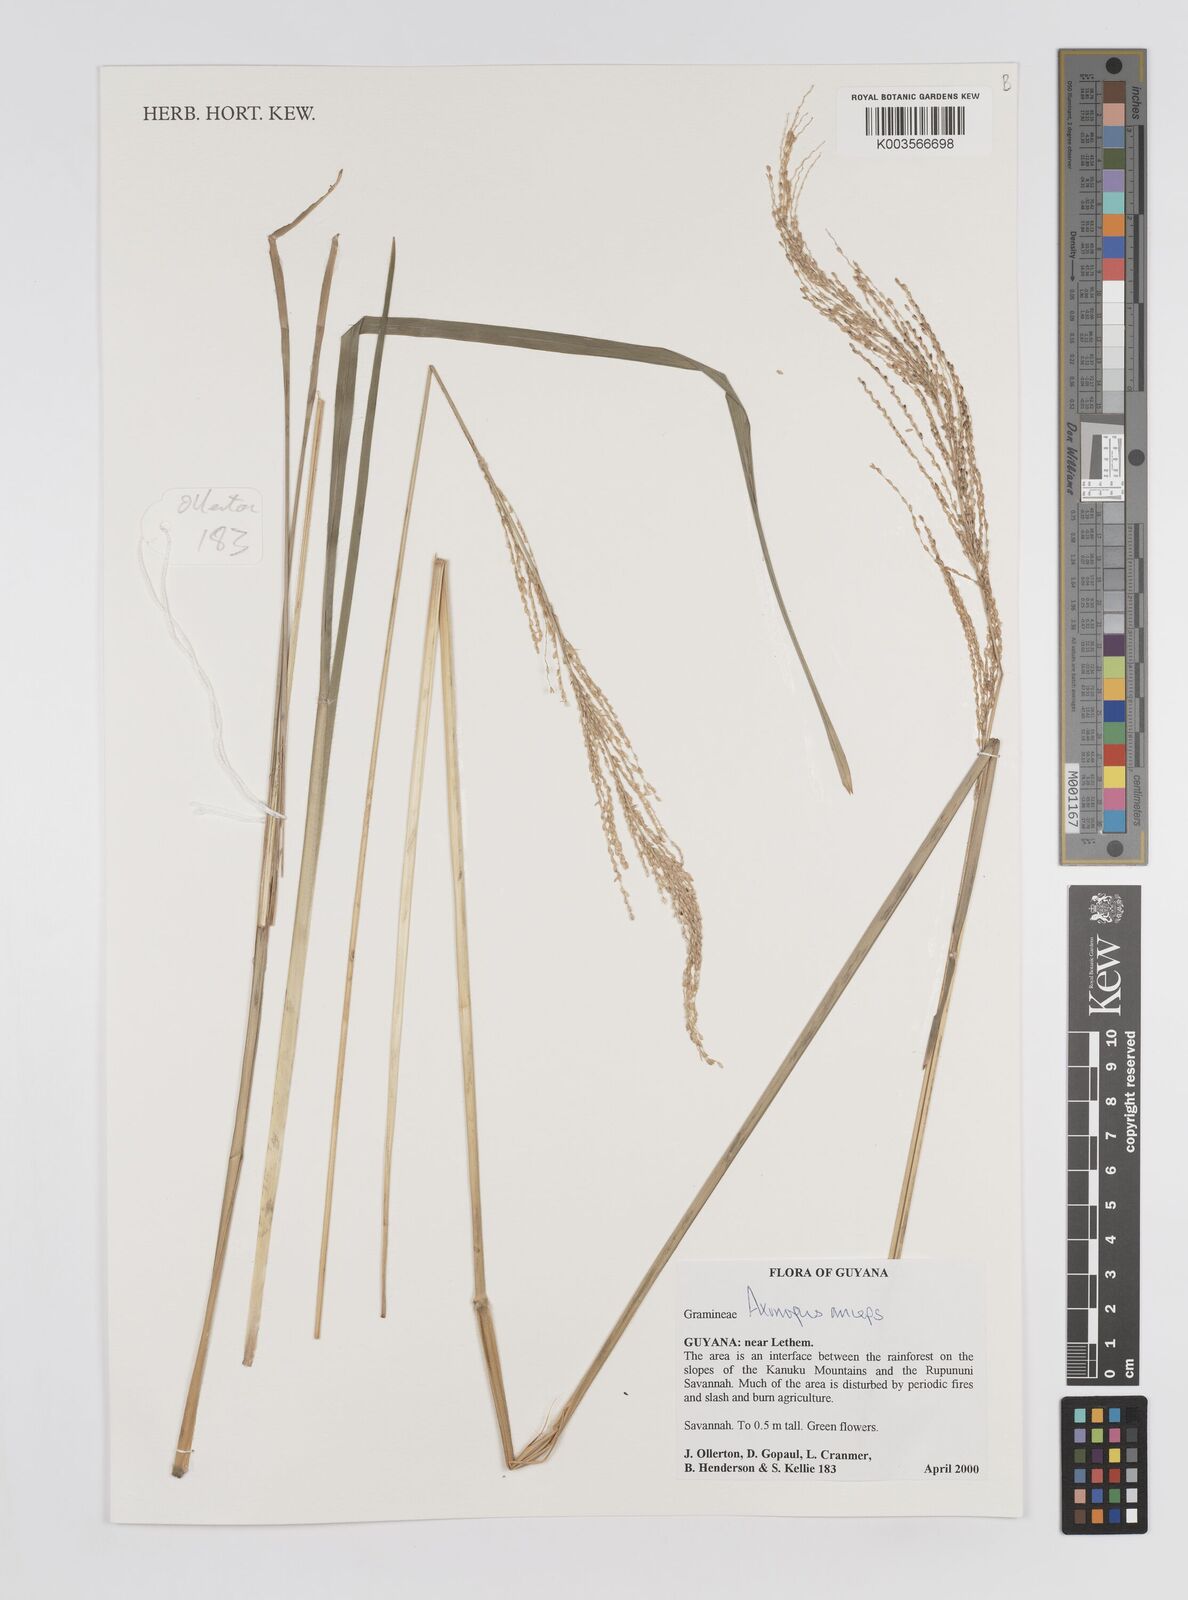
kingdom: Plantae
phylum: Tracheophyta
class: Liliopsida
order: Poales
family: Poaceae
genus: Axonopus
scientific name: Axonopus anceps
